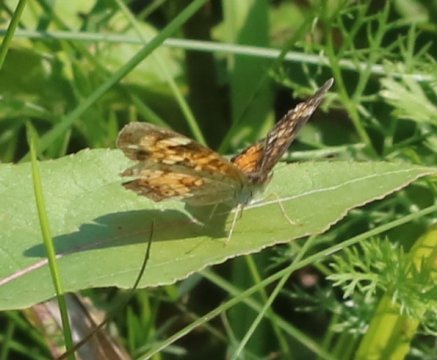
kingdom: Animalia
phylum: Arthropoda
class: Insecta
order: Lepidoptera
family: Nymphalidae
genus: Phyciodes
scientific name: Phyciodes tharos
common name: Northern Crescent
